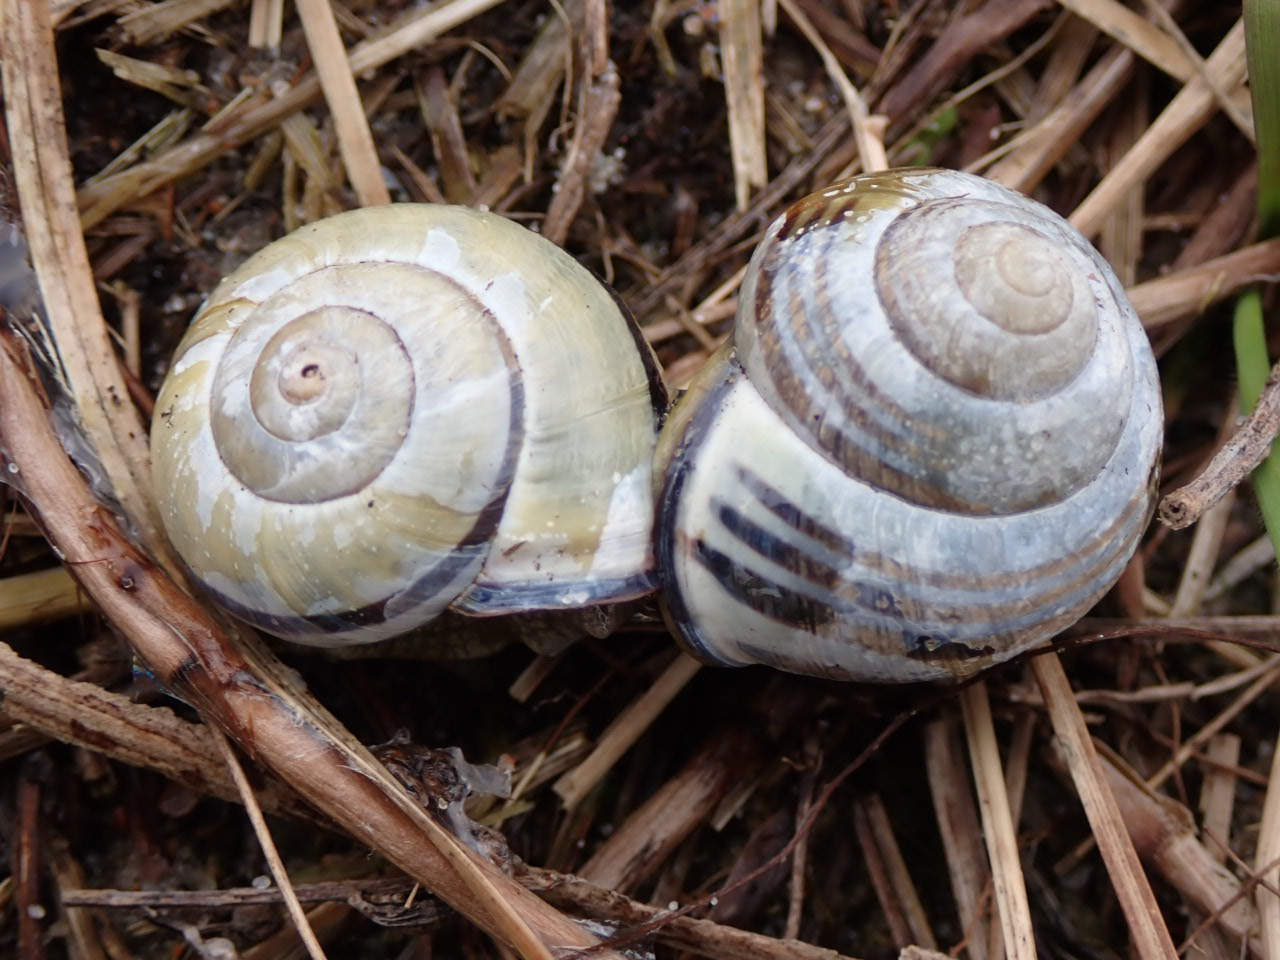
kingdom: Animalia
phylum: Mollusca
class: Gastropoda
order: Stylommatophora
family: Helicidae
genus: Cepaea
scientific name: Cepaea nemoralis
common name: Lundsnegl
